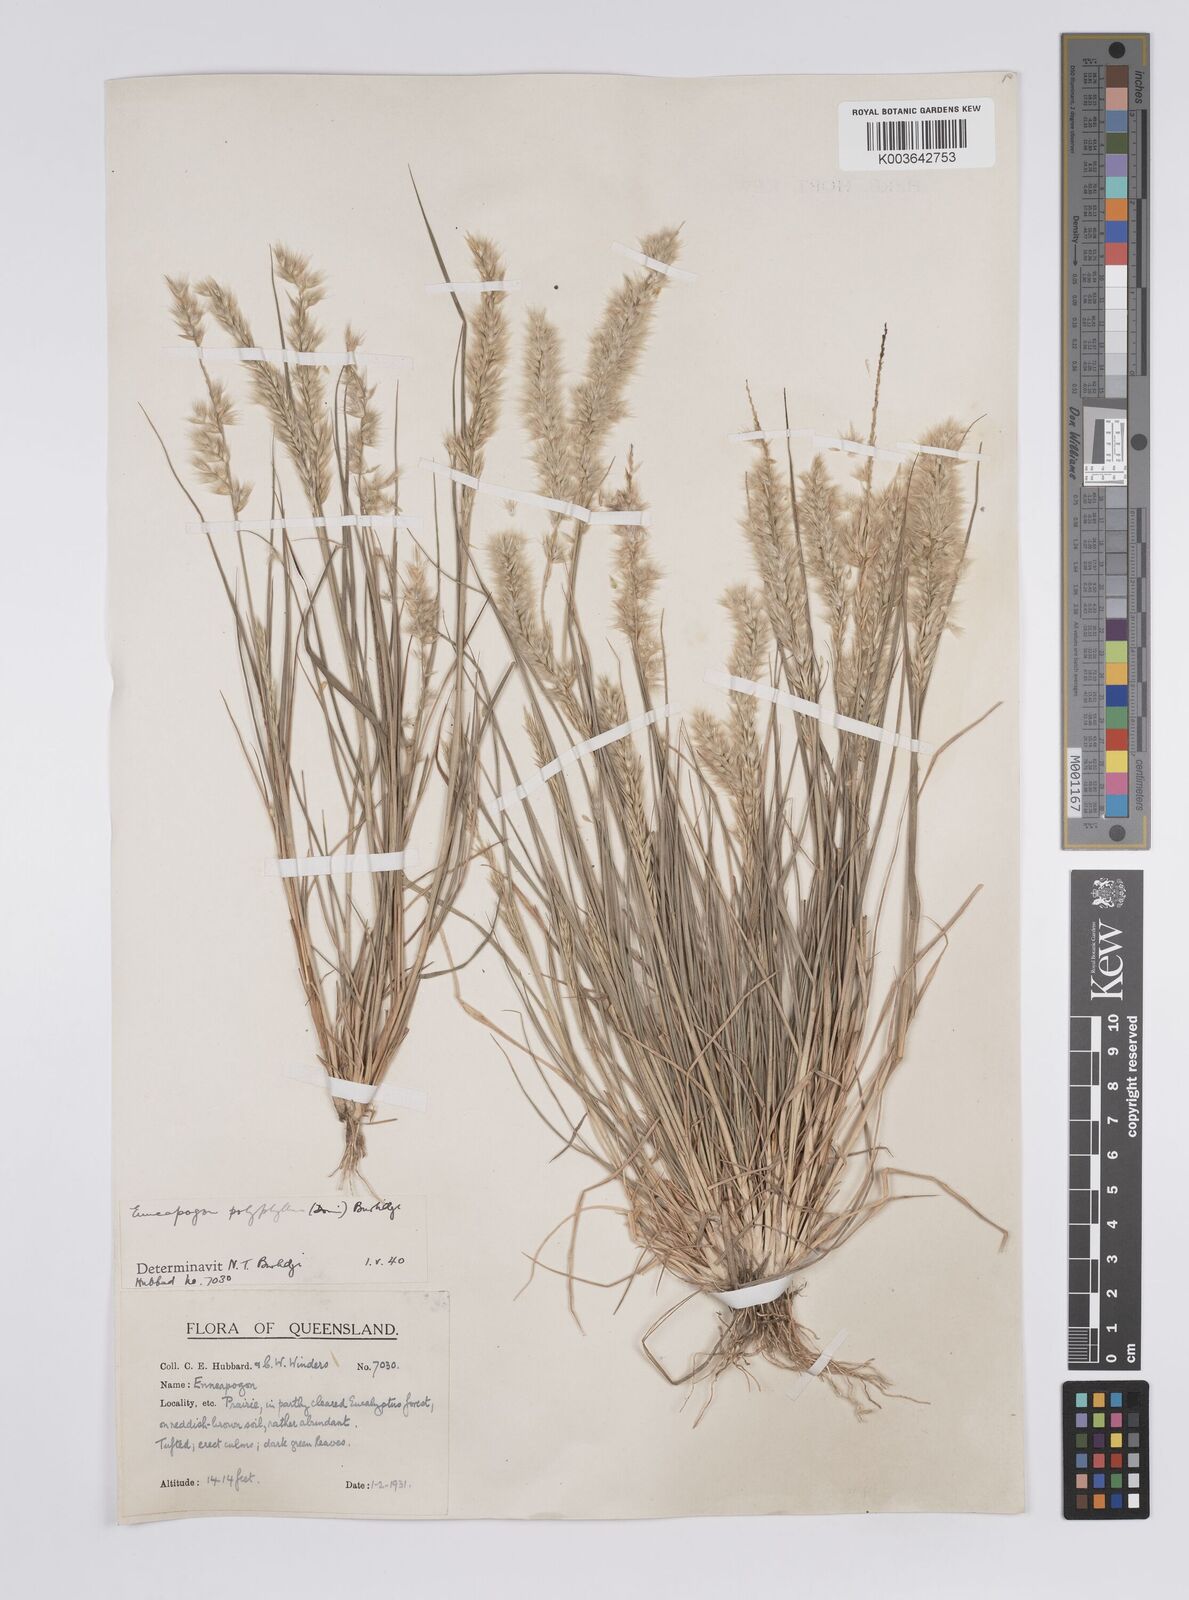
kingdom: Plantae
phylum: Tracheophyta
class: Liliopsida
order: Poales
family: Poaceae
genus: Enneapogon
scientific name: Enneapogon polyphyllus
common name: Leafy nineawn
